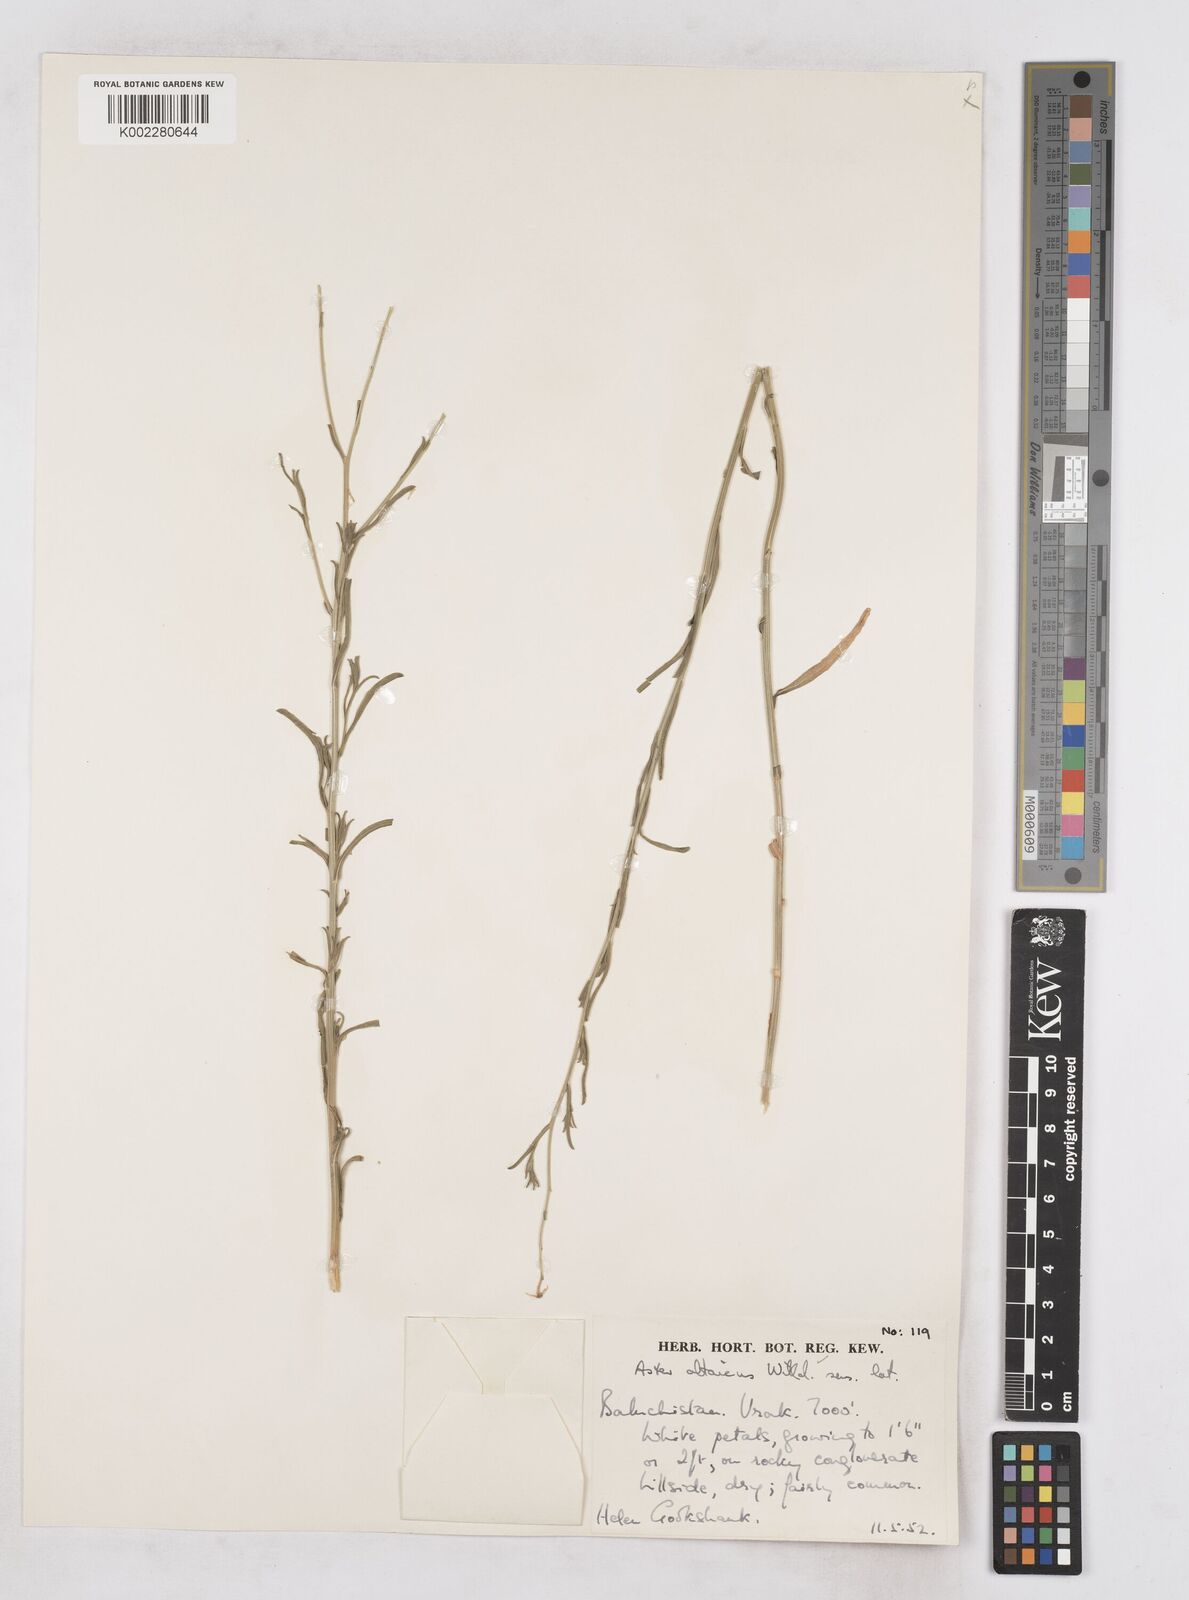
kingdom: Plantae
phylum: Tracheophyta
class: Magnoliopsida
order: Asterales
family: Asteraceae
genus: Heteropappus
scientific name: Heteropappus altaicus
